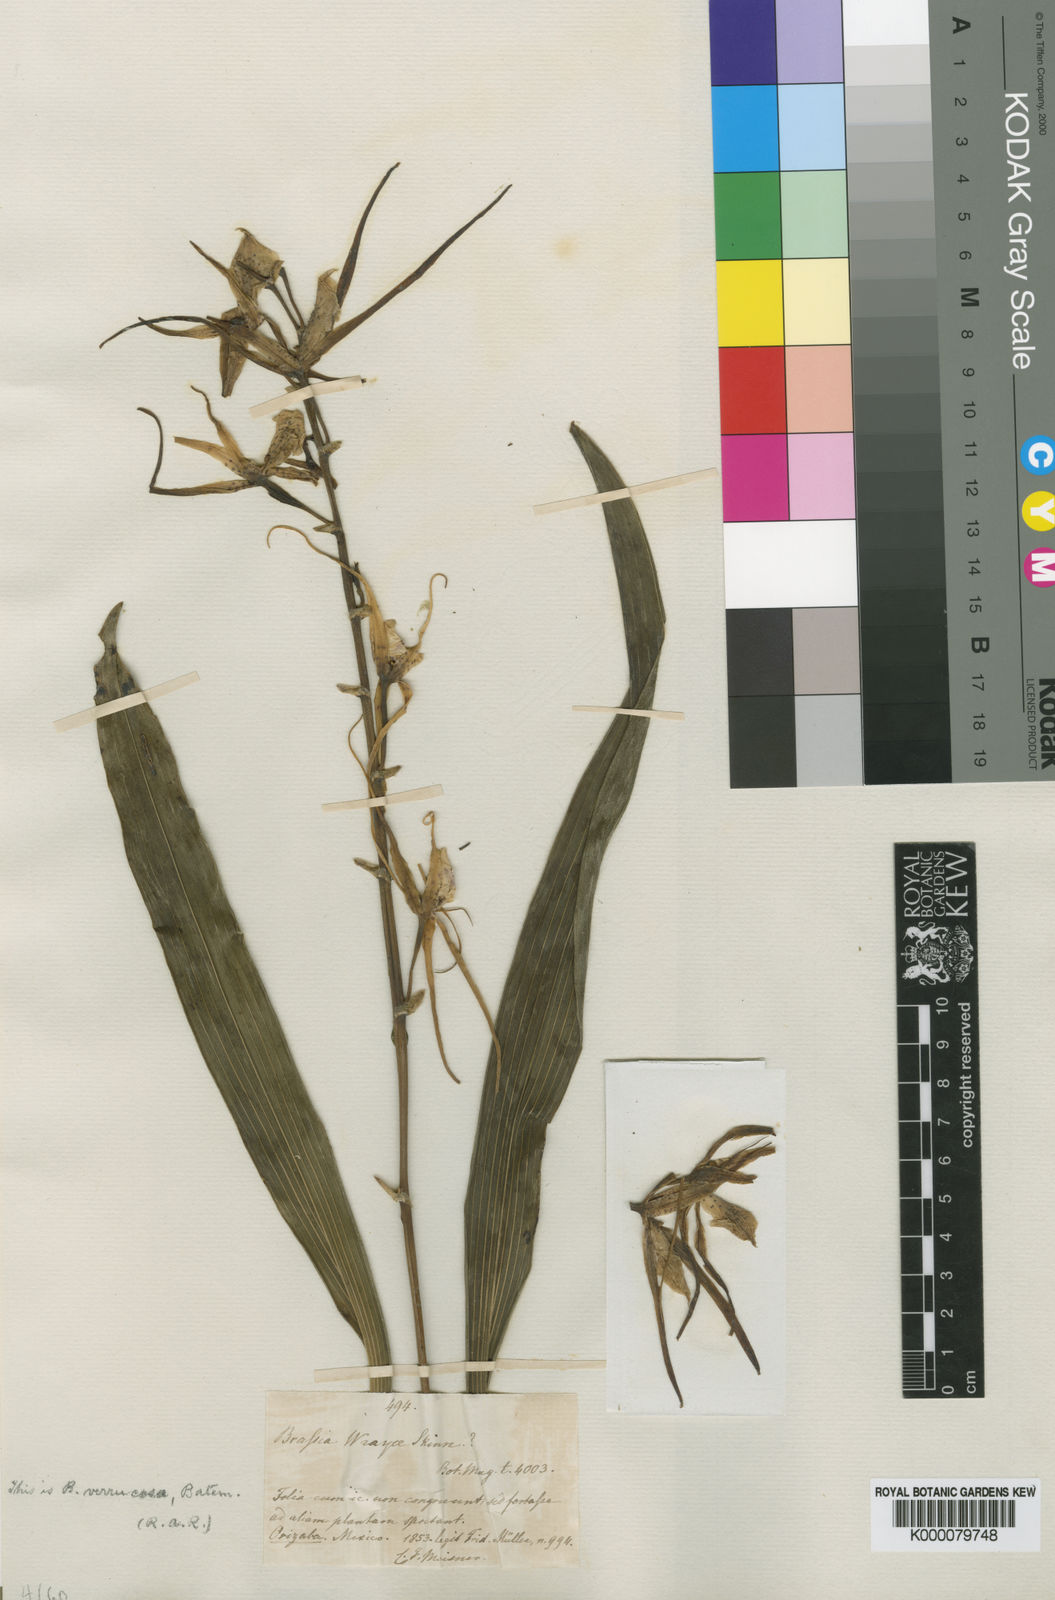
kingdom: Plantae
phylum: Tracheophyta
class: Liliopsida
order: Asparagales
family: Orchidaceae
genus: Brassia
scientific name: Brassia verrucosa
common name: Warty brassia
